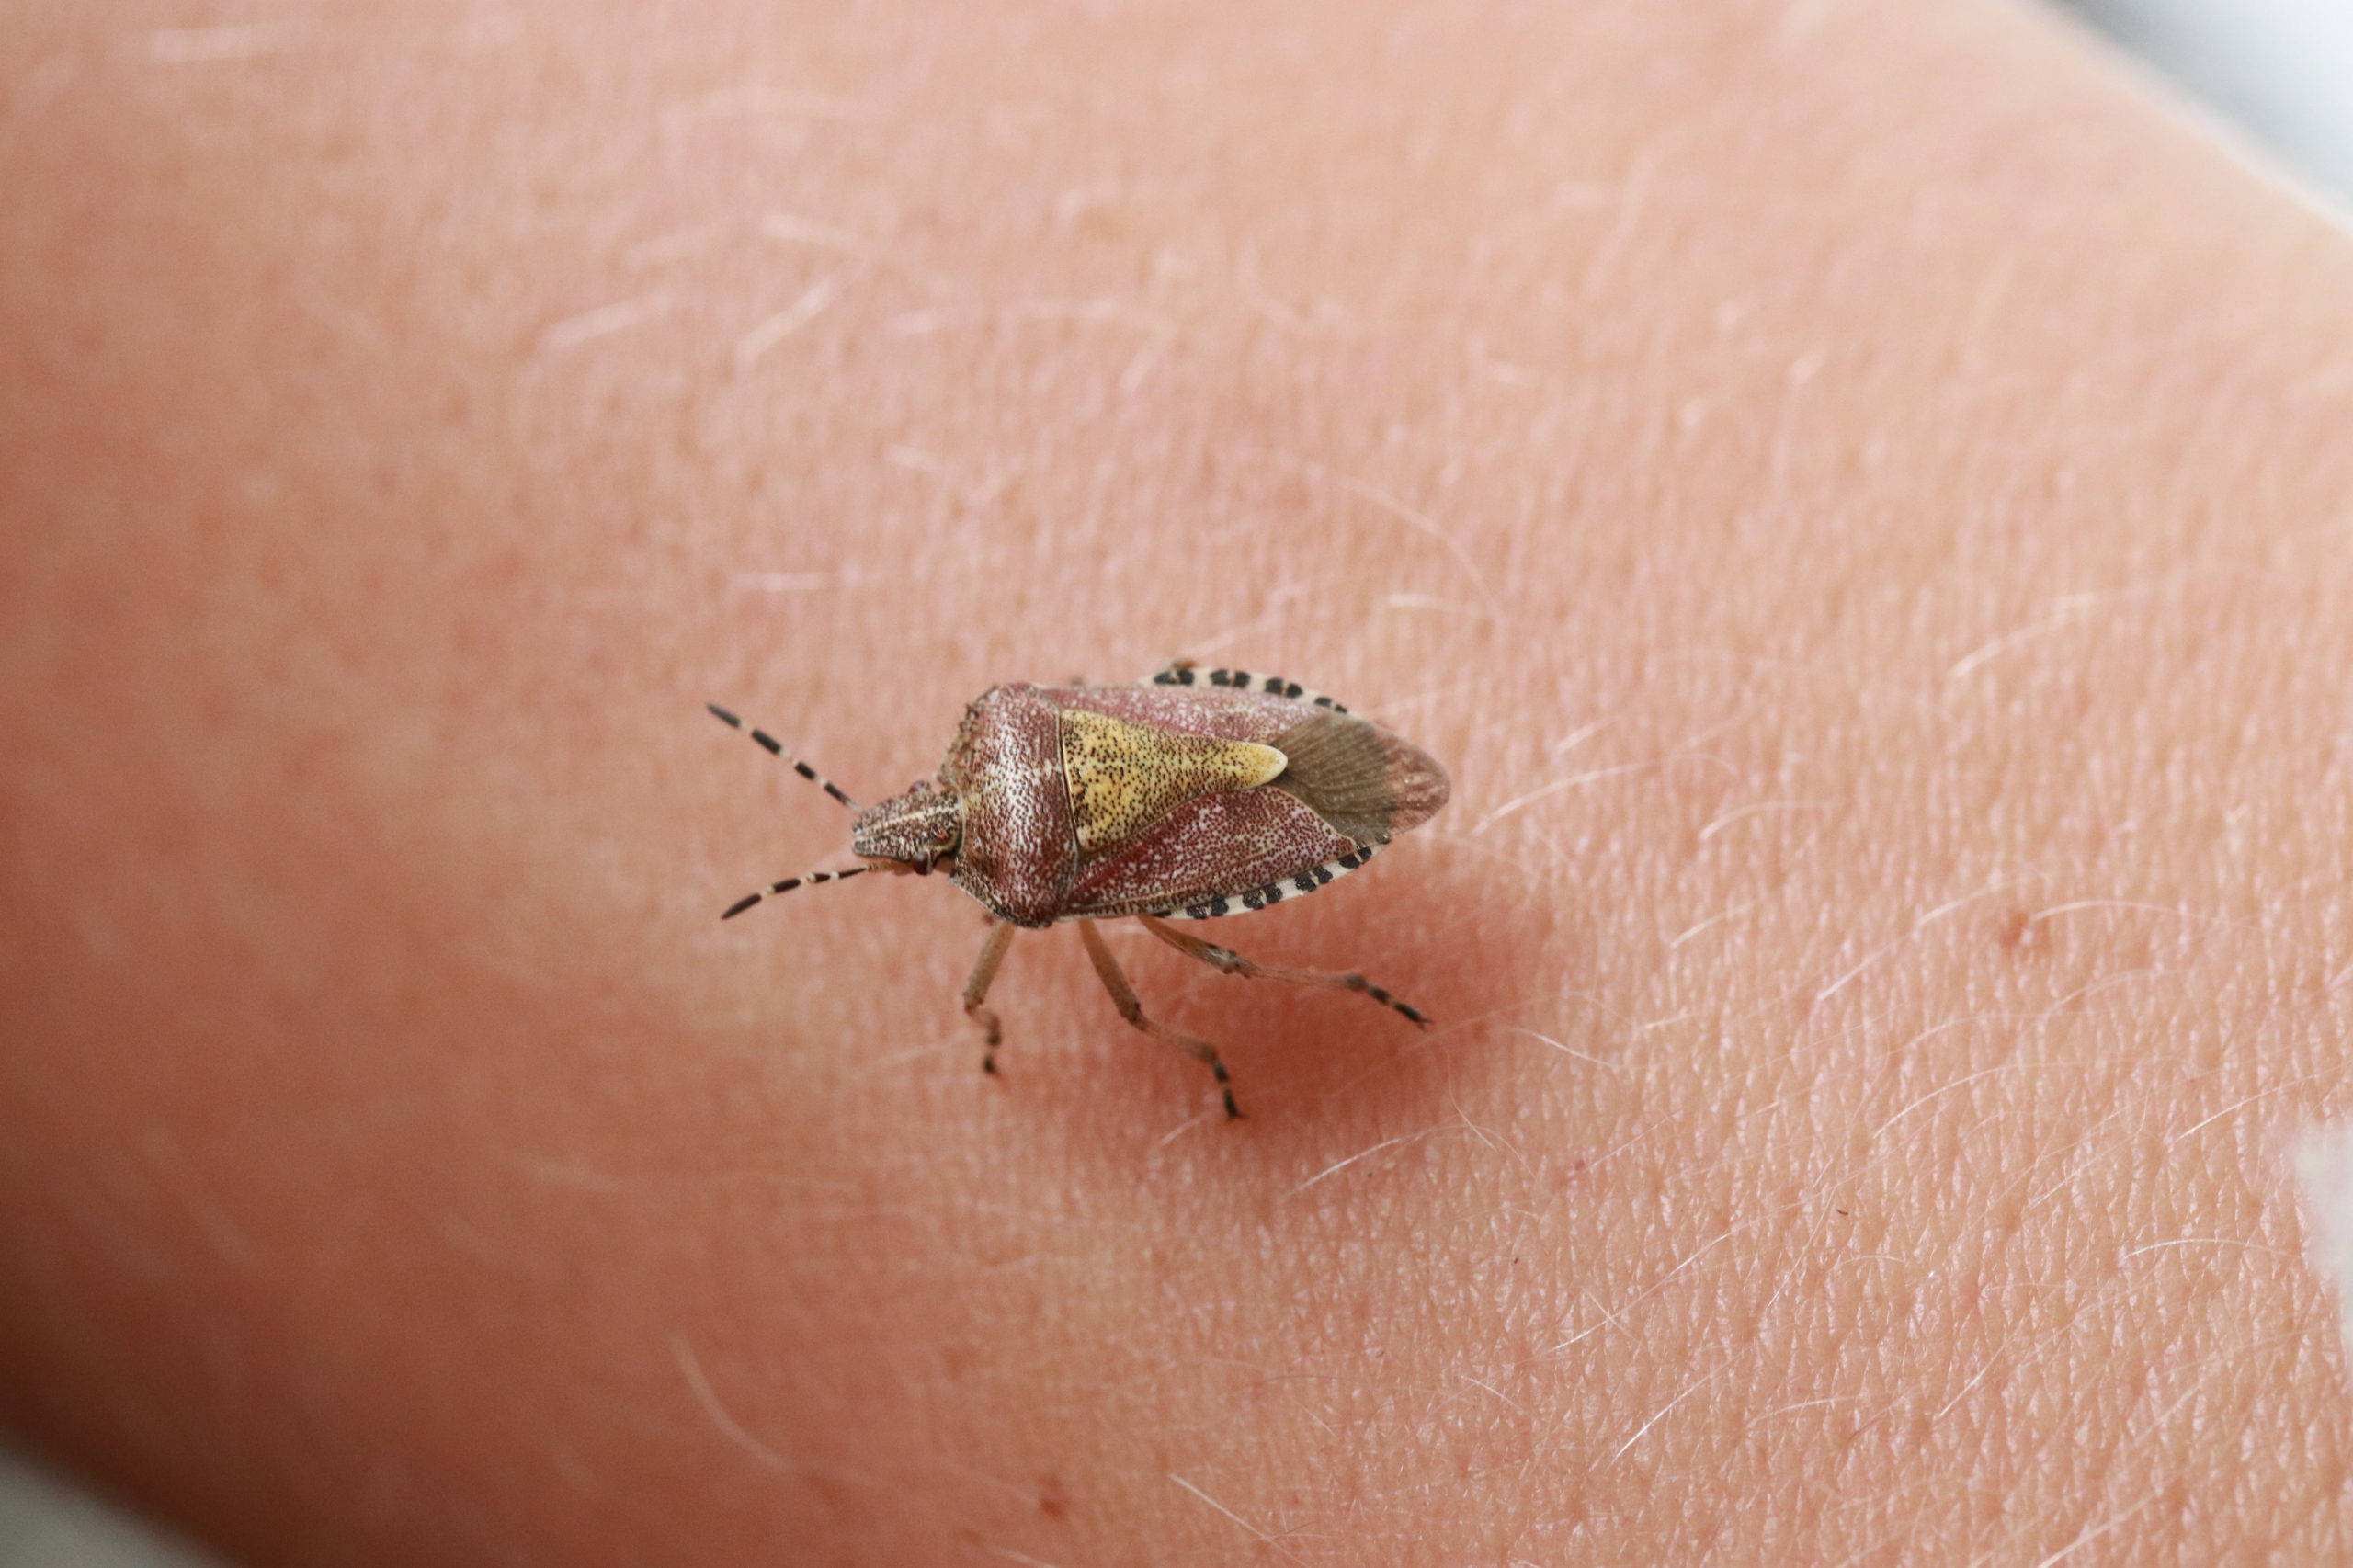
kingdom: Animalia
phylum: Arthropoda
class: Insecta
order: Hemiptera
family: Pentatomidae
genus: Dolycoris
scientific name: Dolycoris baccarum
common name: Almindelig bærtæge
